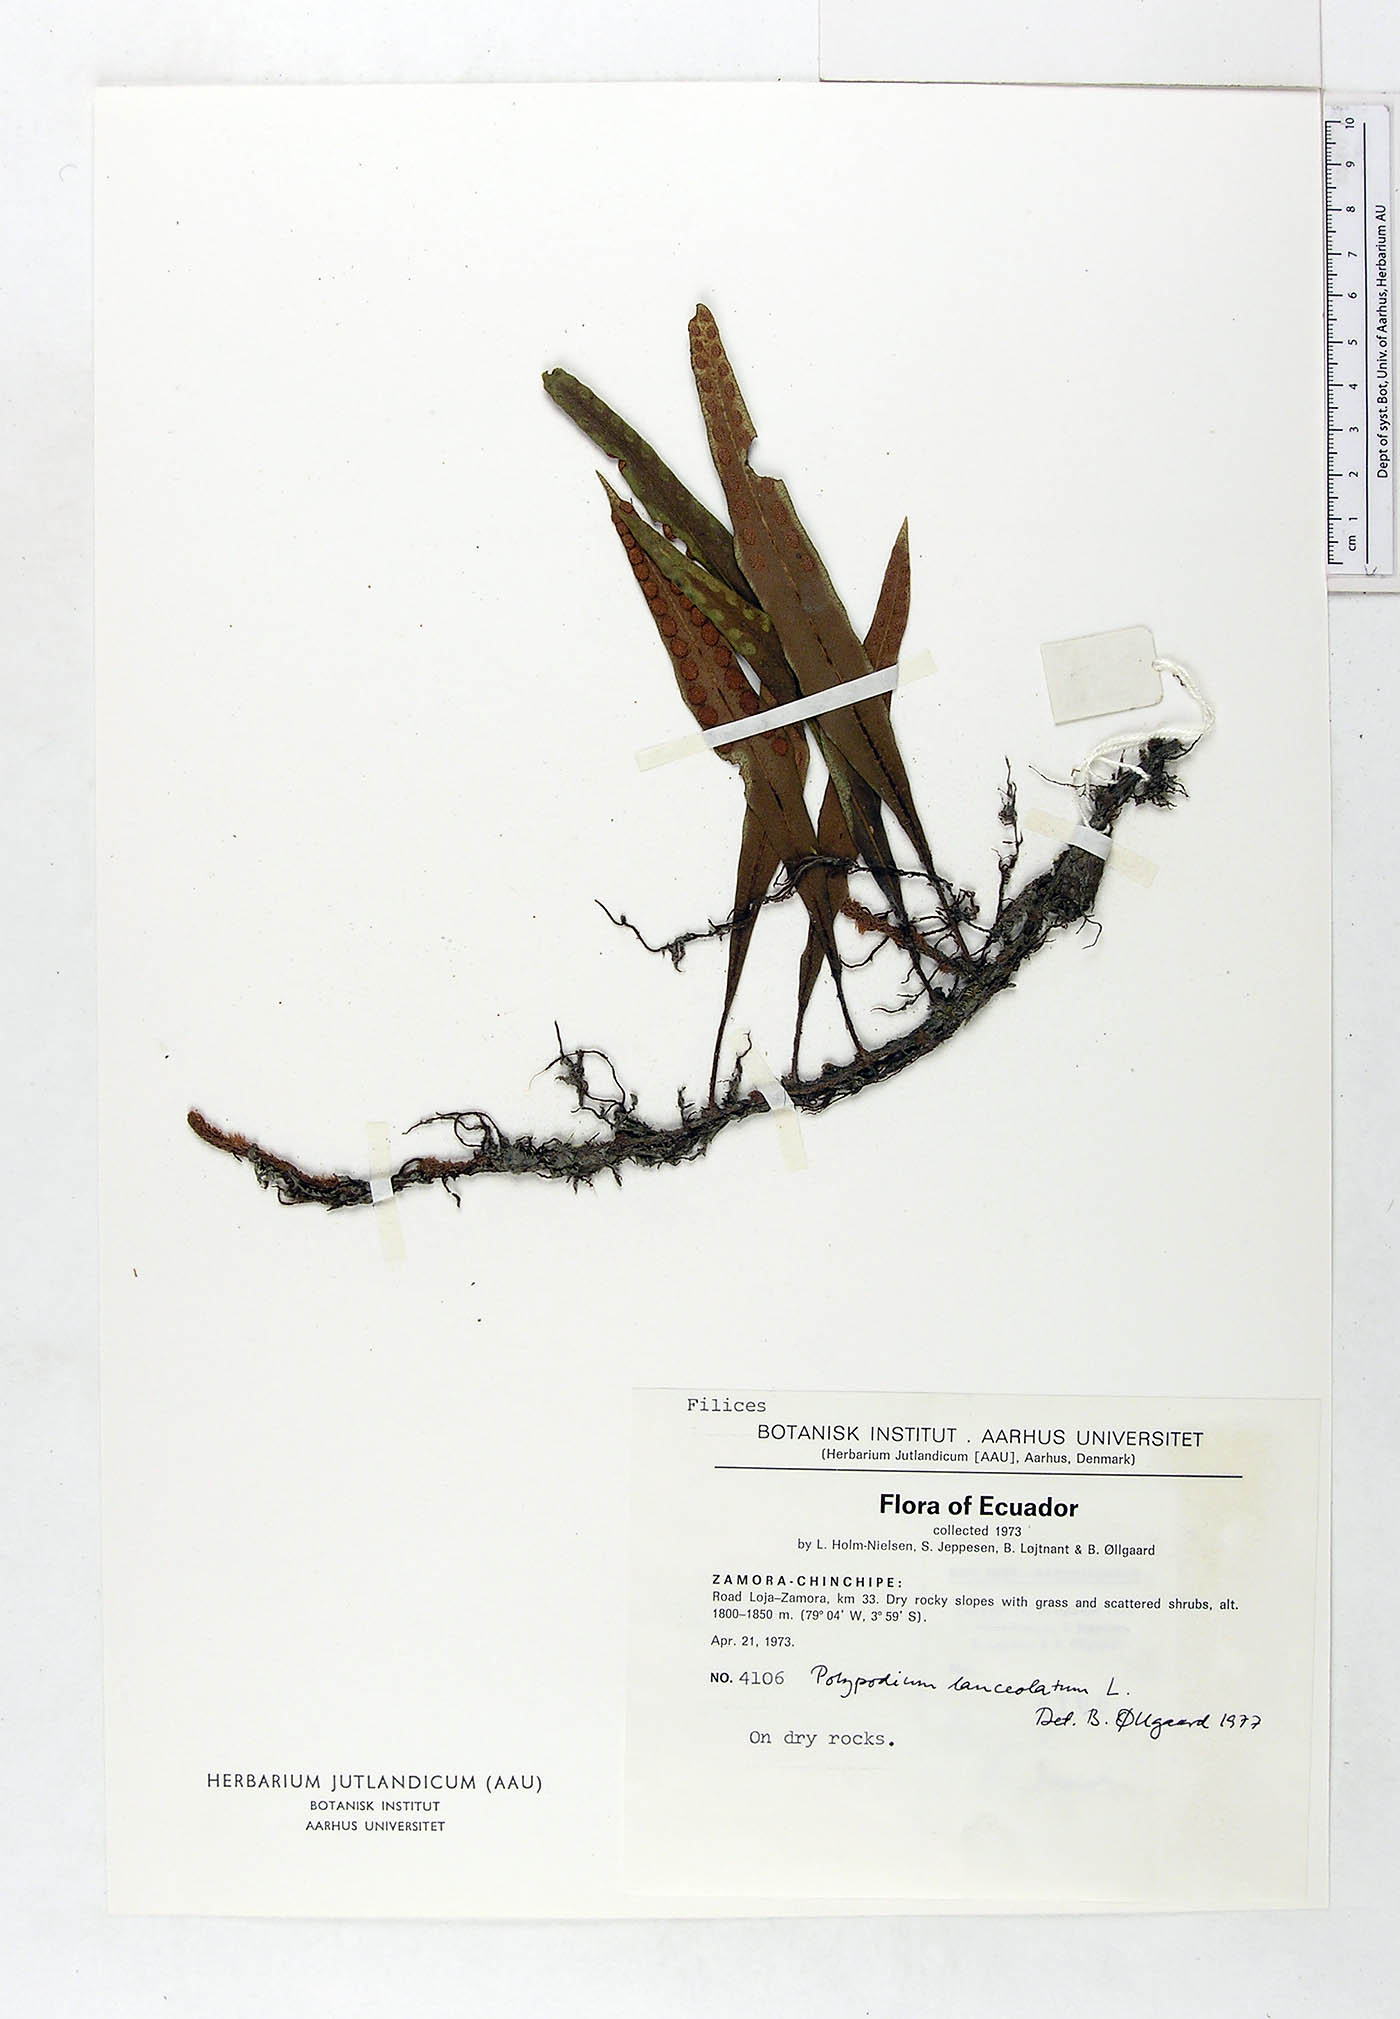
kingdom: Plantae
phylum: Tracheophyta
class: Polypodiopsida
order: Polypodiales
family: Polypodiaceae
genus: Pleopeltis
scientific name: Pleopeltis macrocarpa
